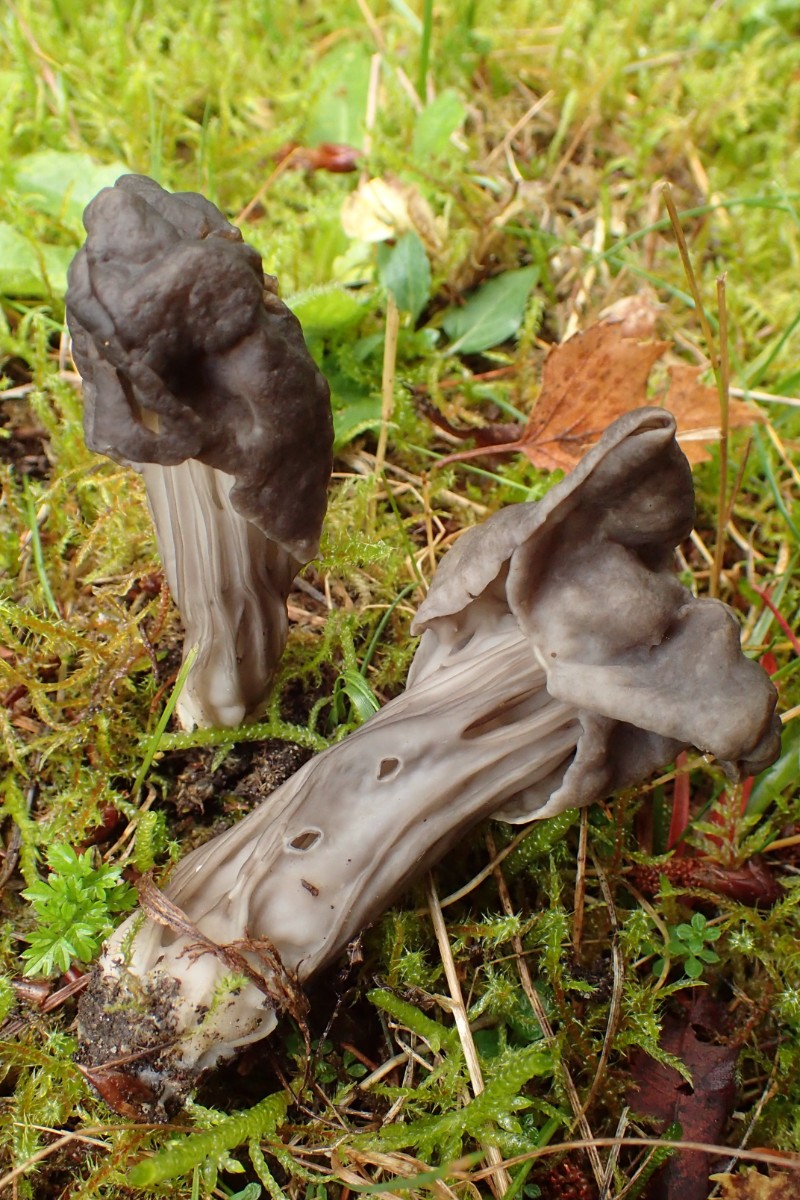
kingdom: Fungi
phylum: Ascomycota
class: Pezizomycetes
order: Pezizales
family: Helvellaceae
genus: Helvella
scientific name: Helvella lacunosa
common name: grubet foldhat
